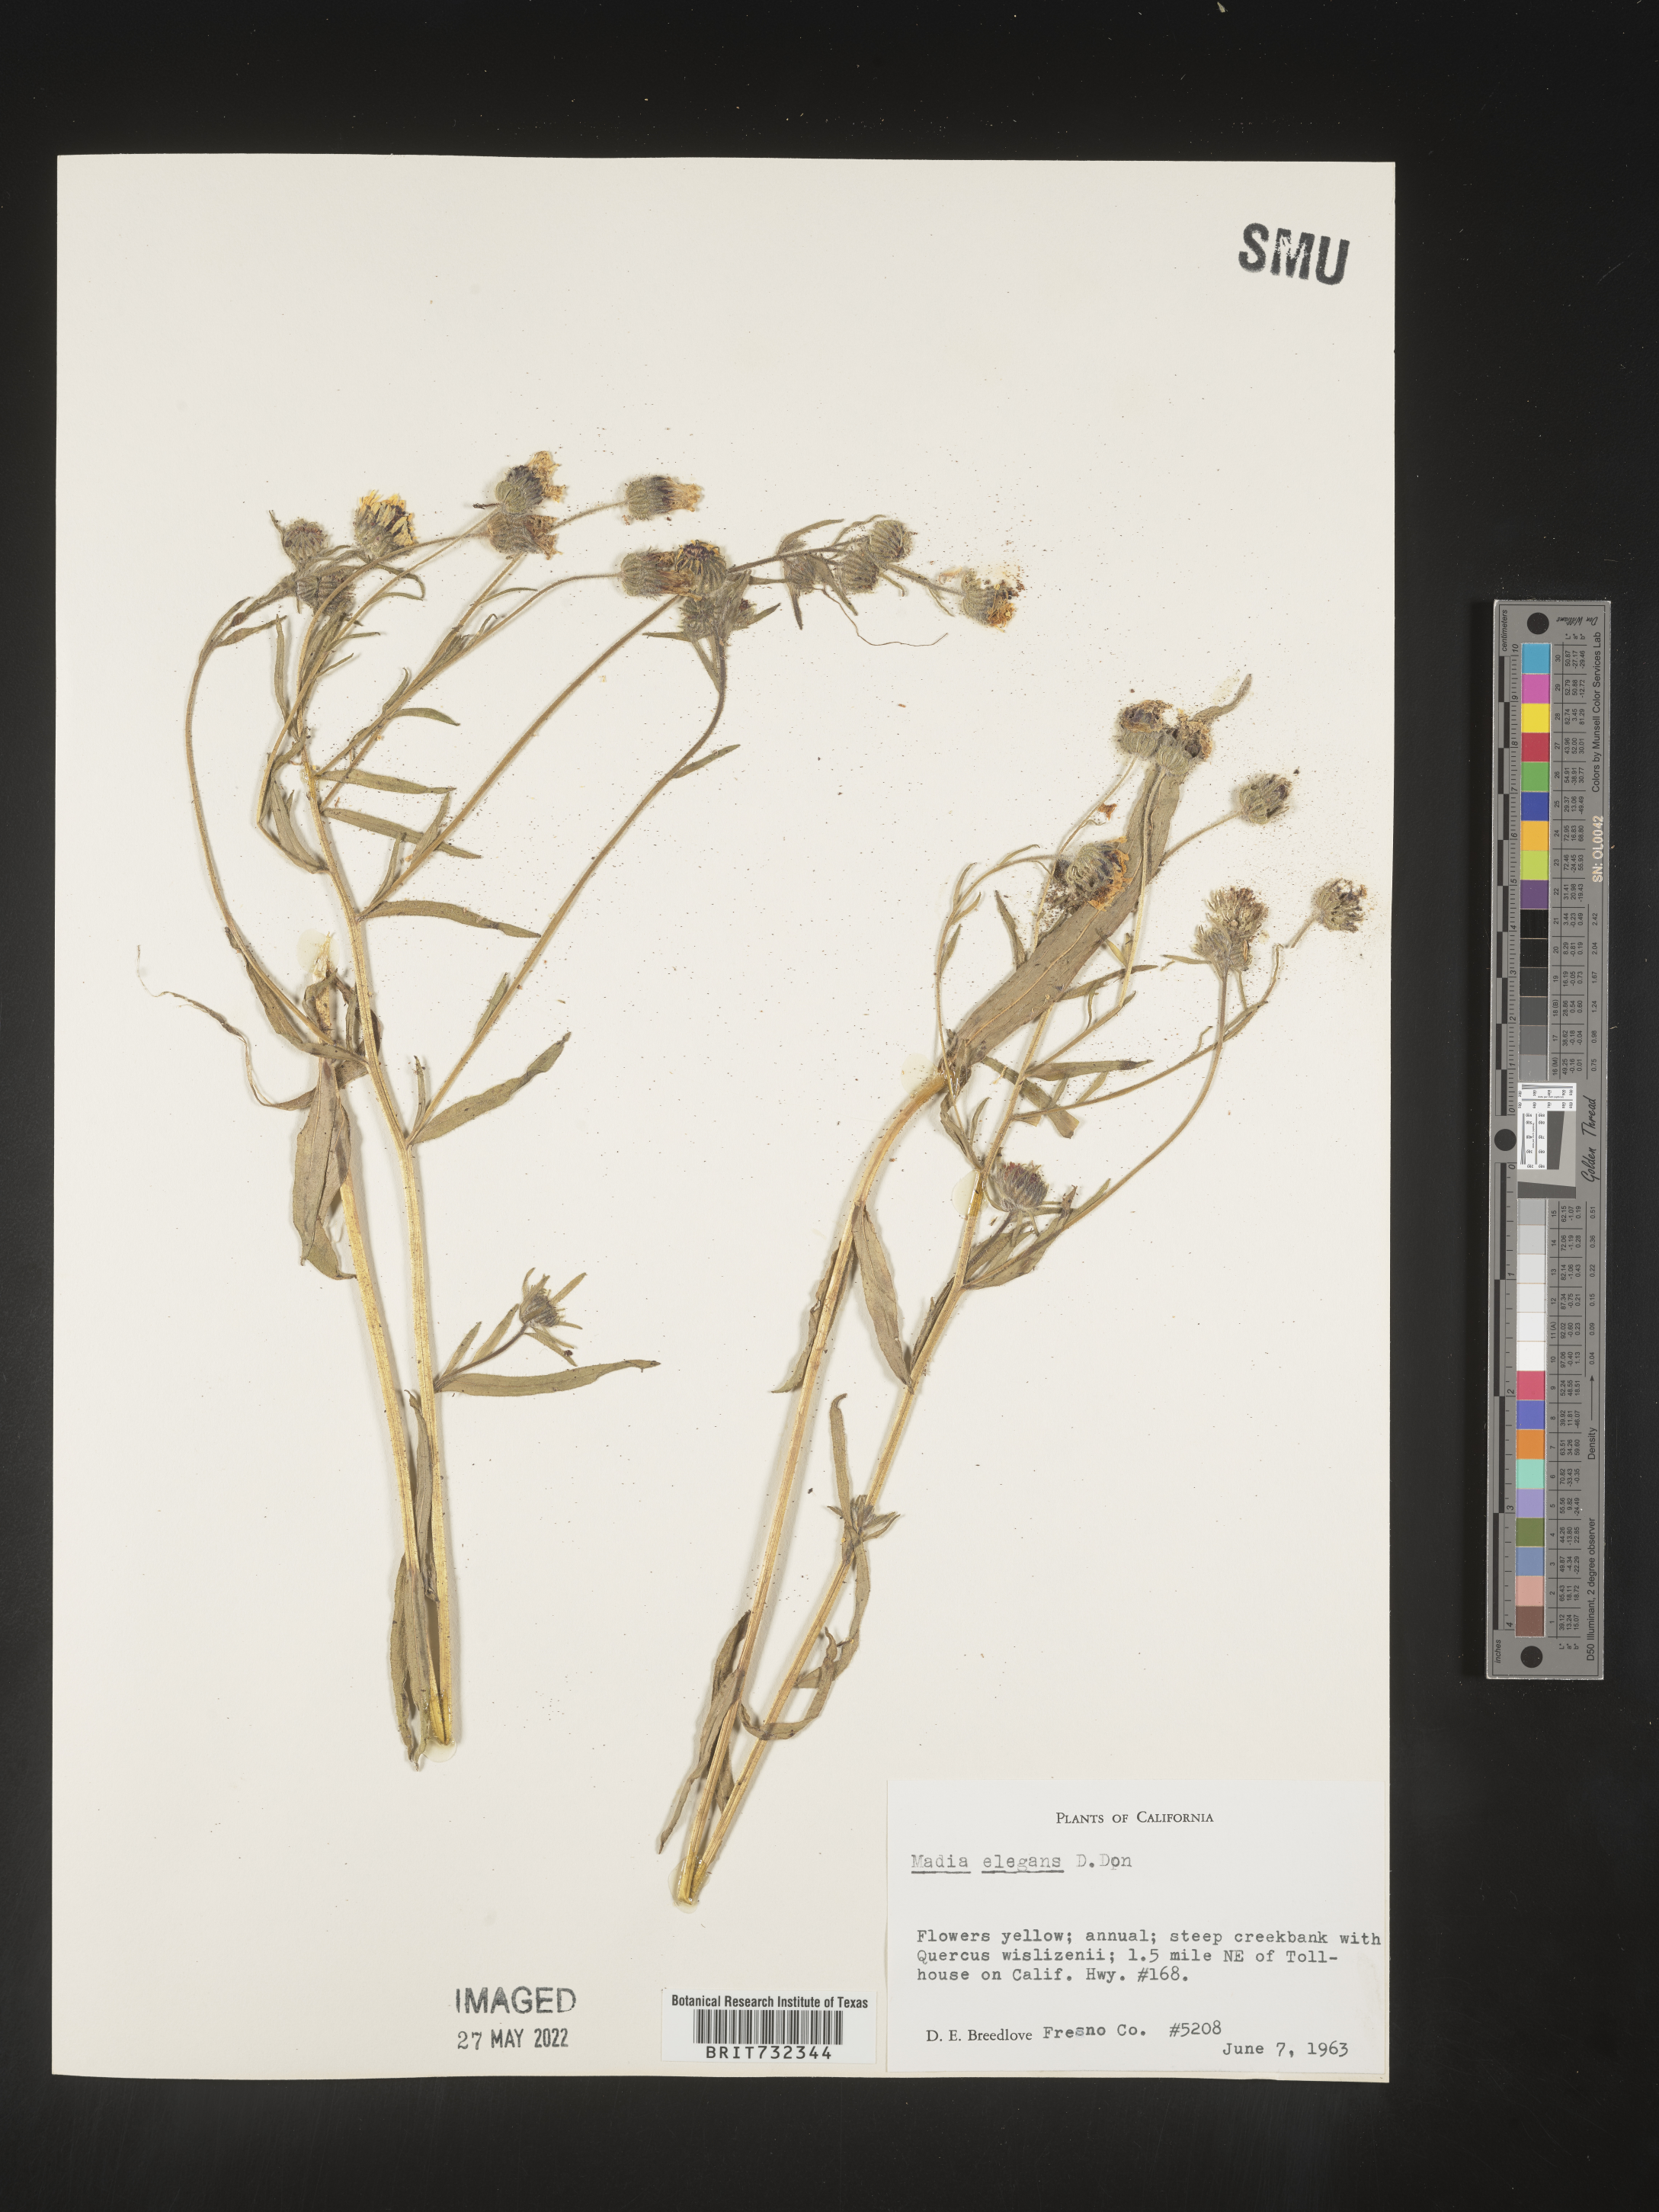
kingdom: Plantae
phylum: Tracheophyta
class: Magnoliopsida
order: Asterales
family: Asteraceae
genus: Madia
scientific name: Madia
